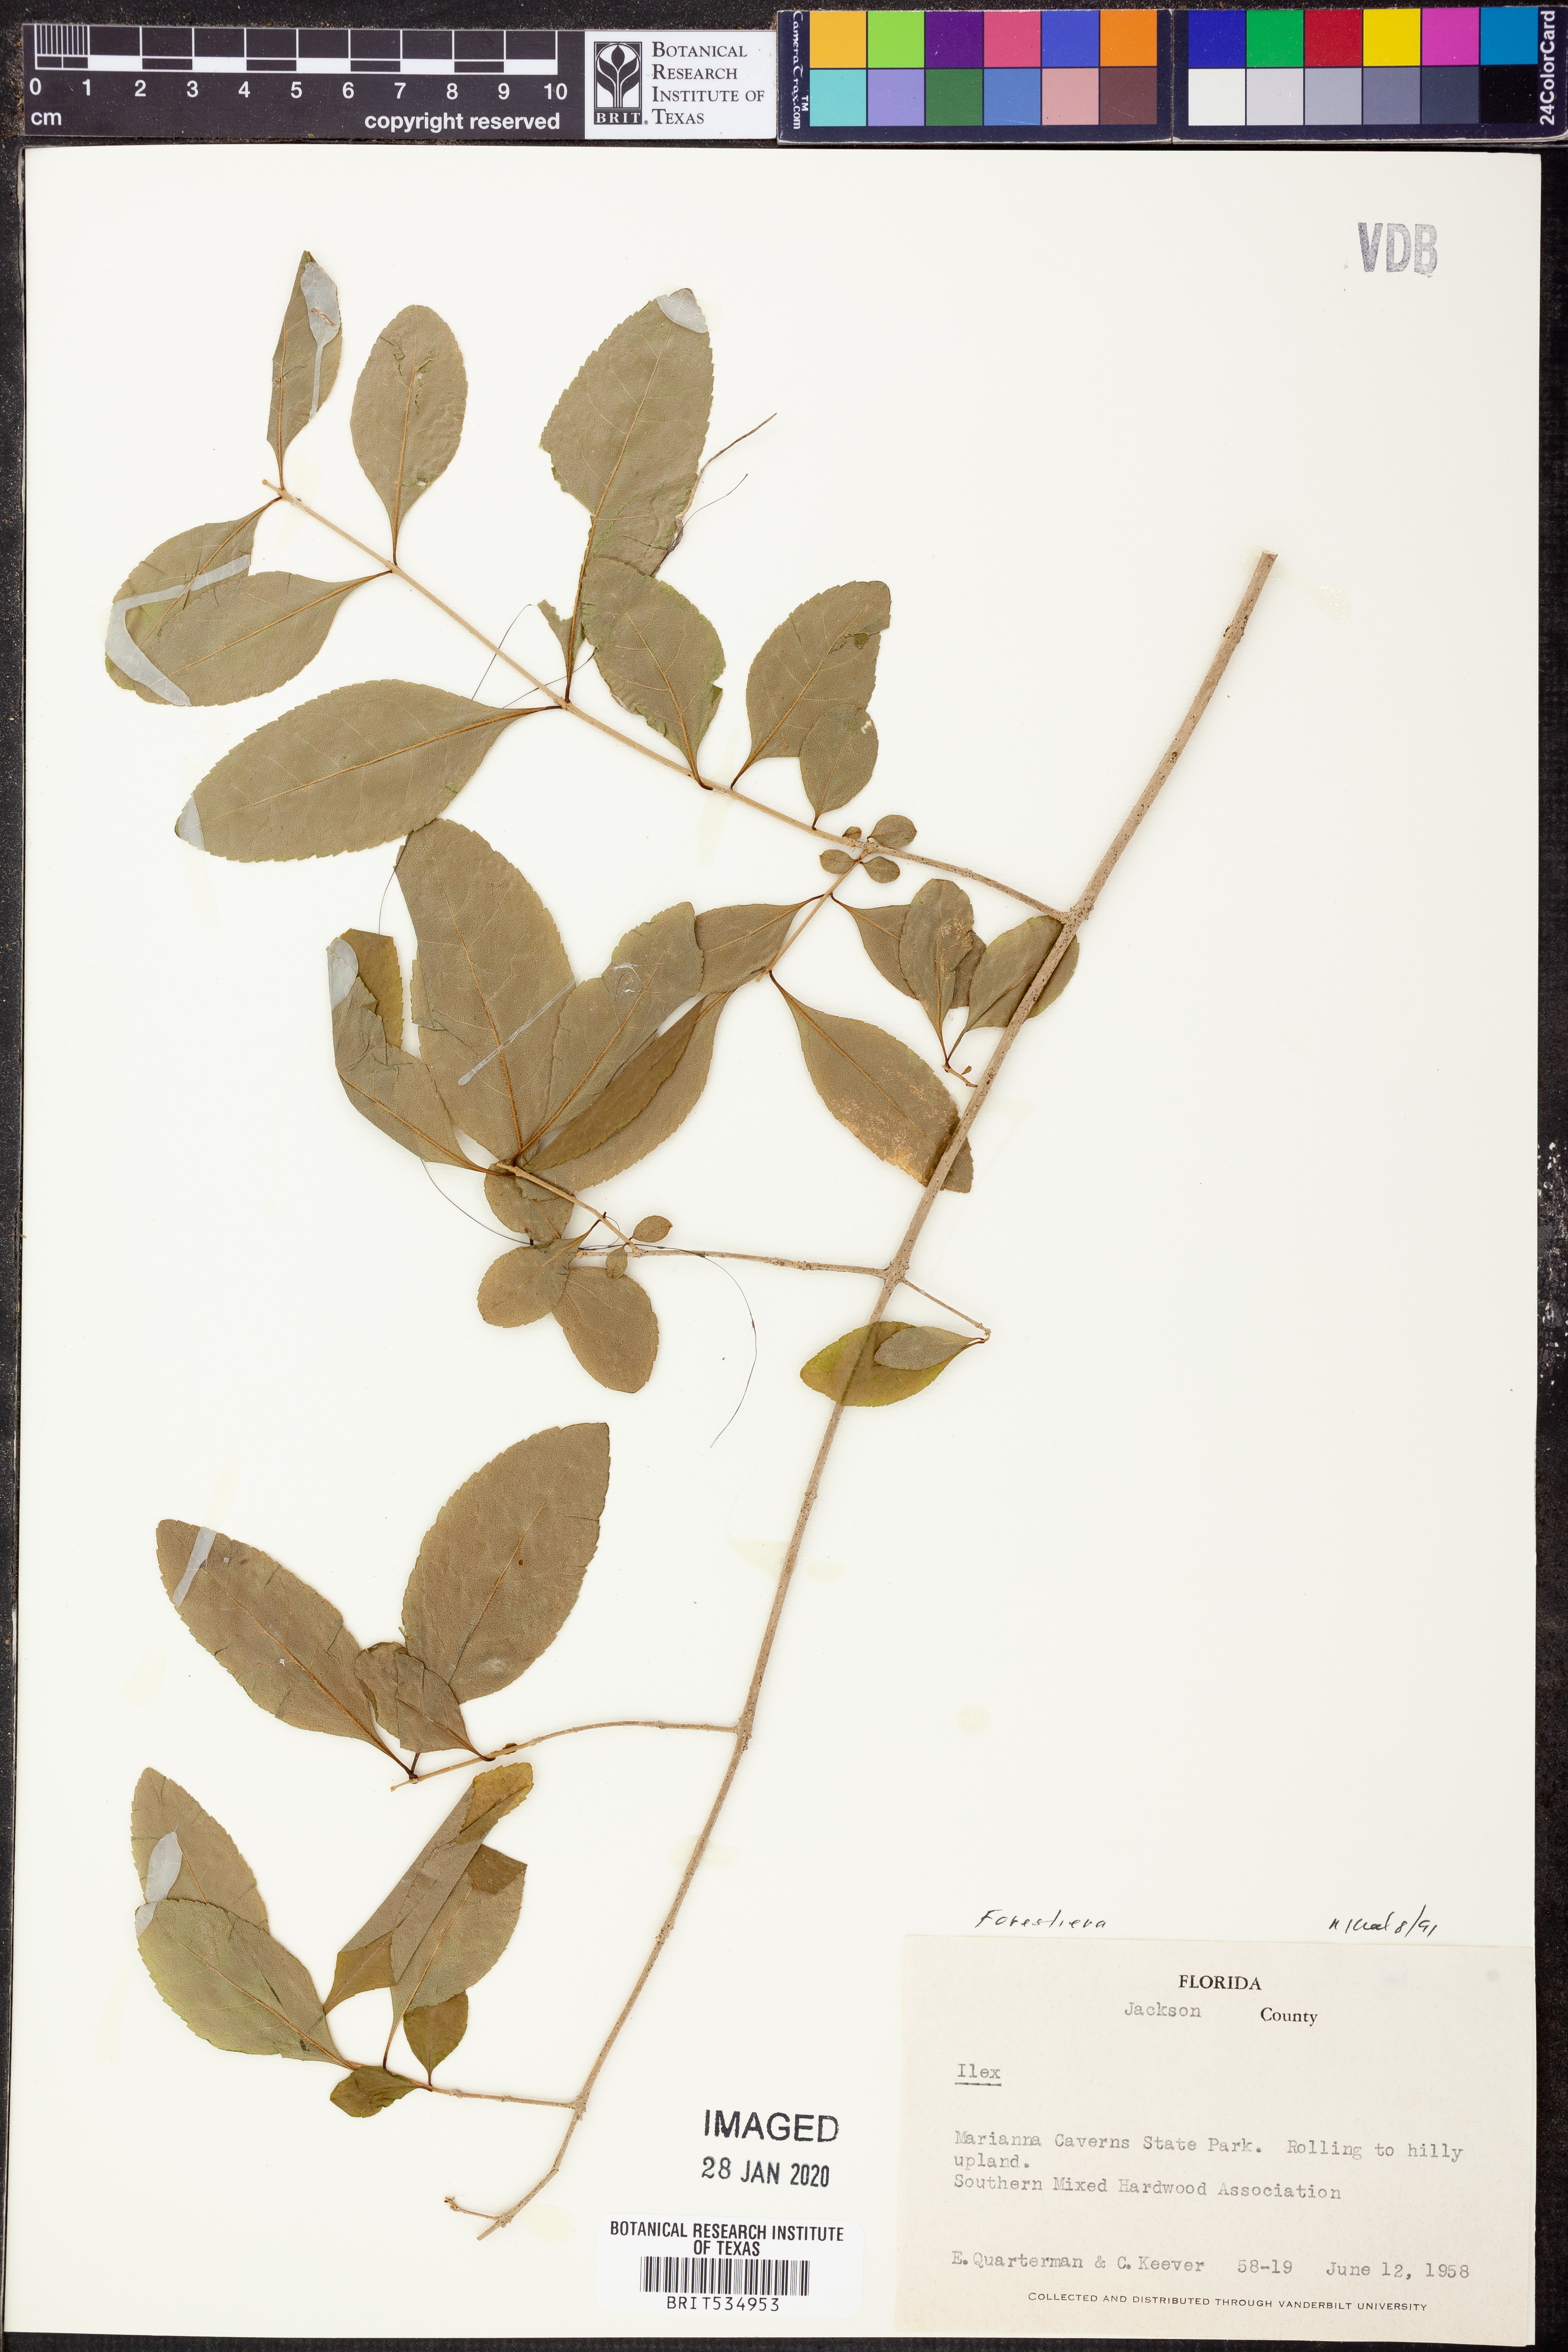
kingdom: Plantae
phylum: Tracheophyta
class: Magnoliopsida
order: Lamiales
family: Oleaceae
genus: Forestiera
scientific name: Forestiera
